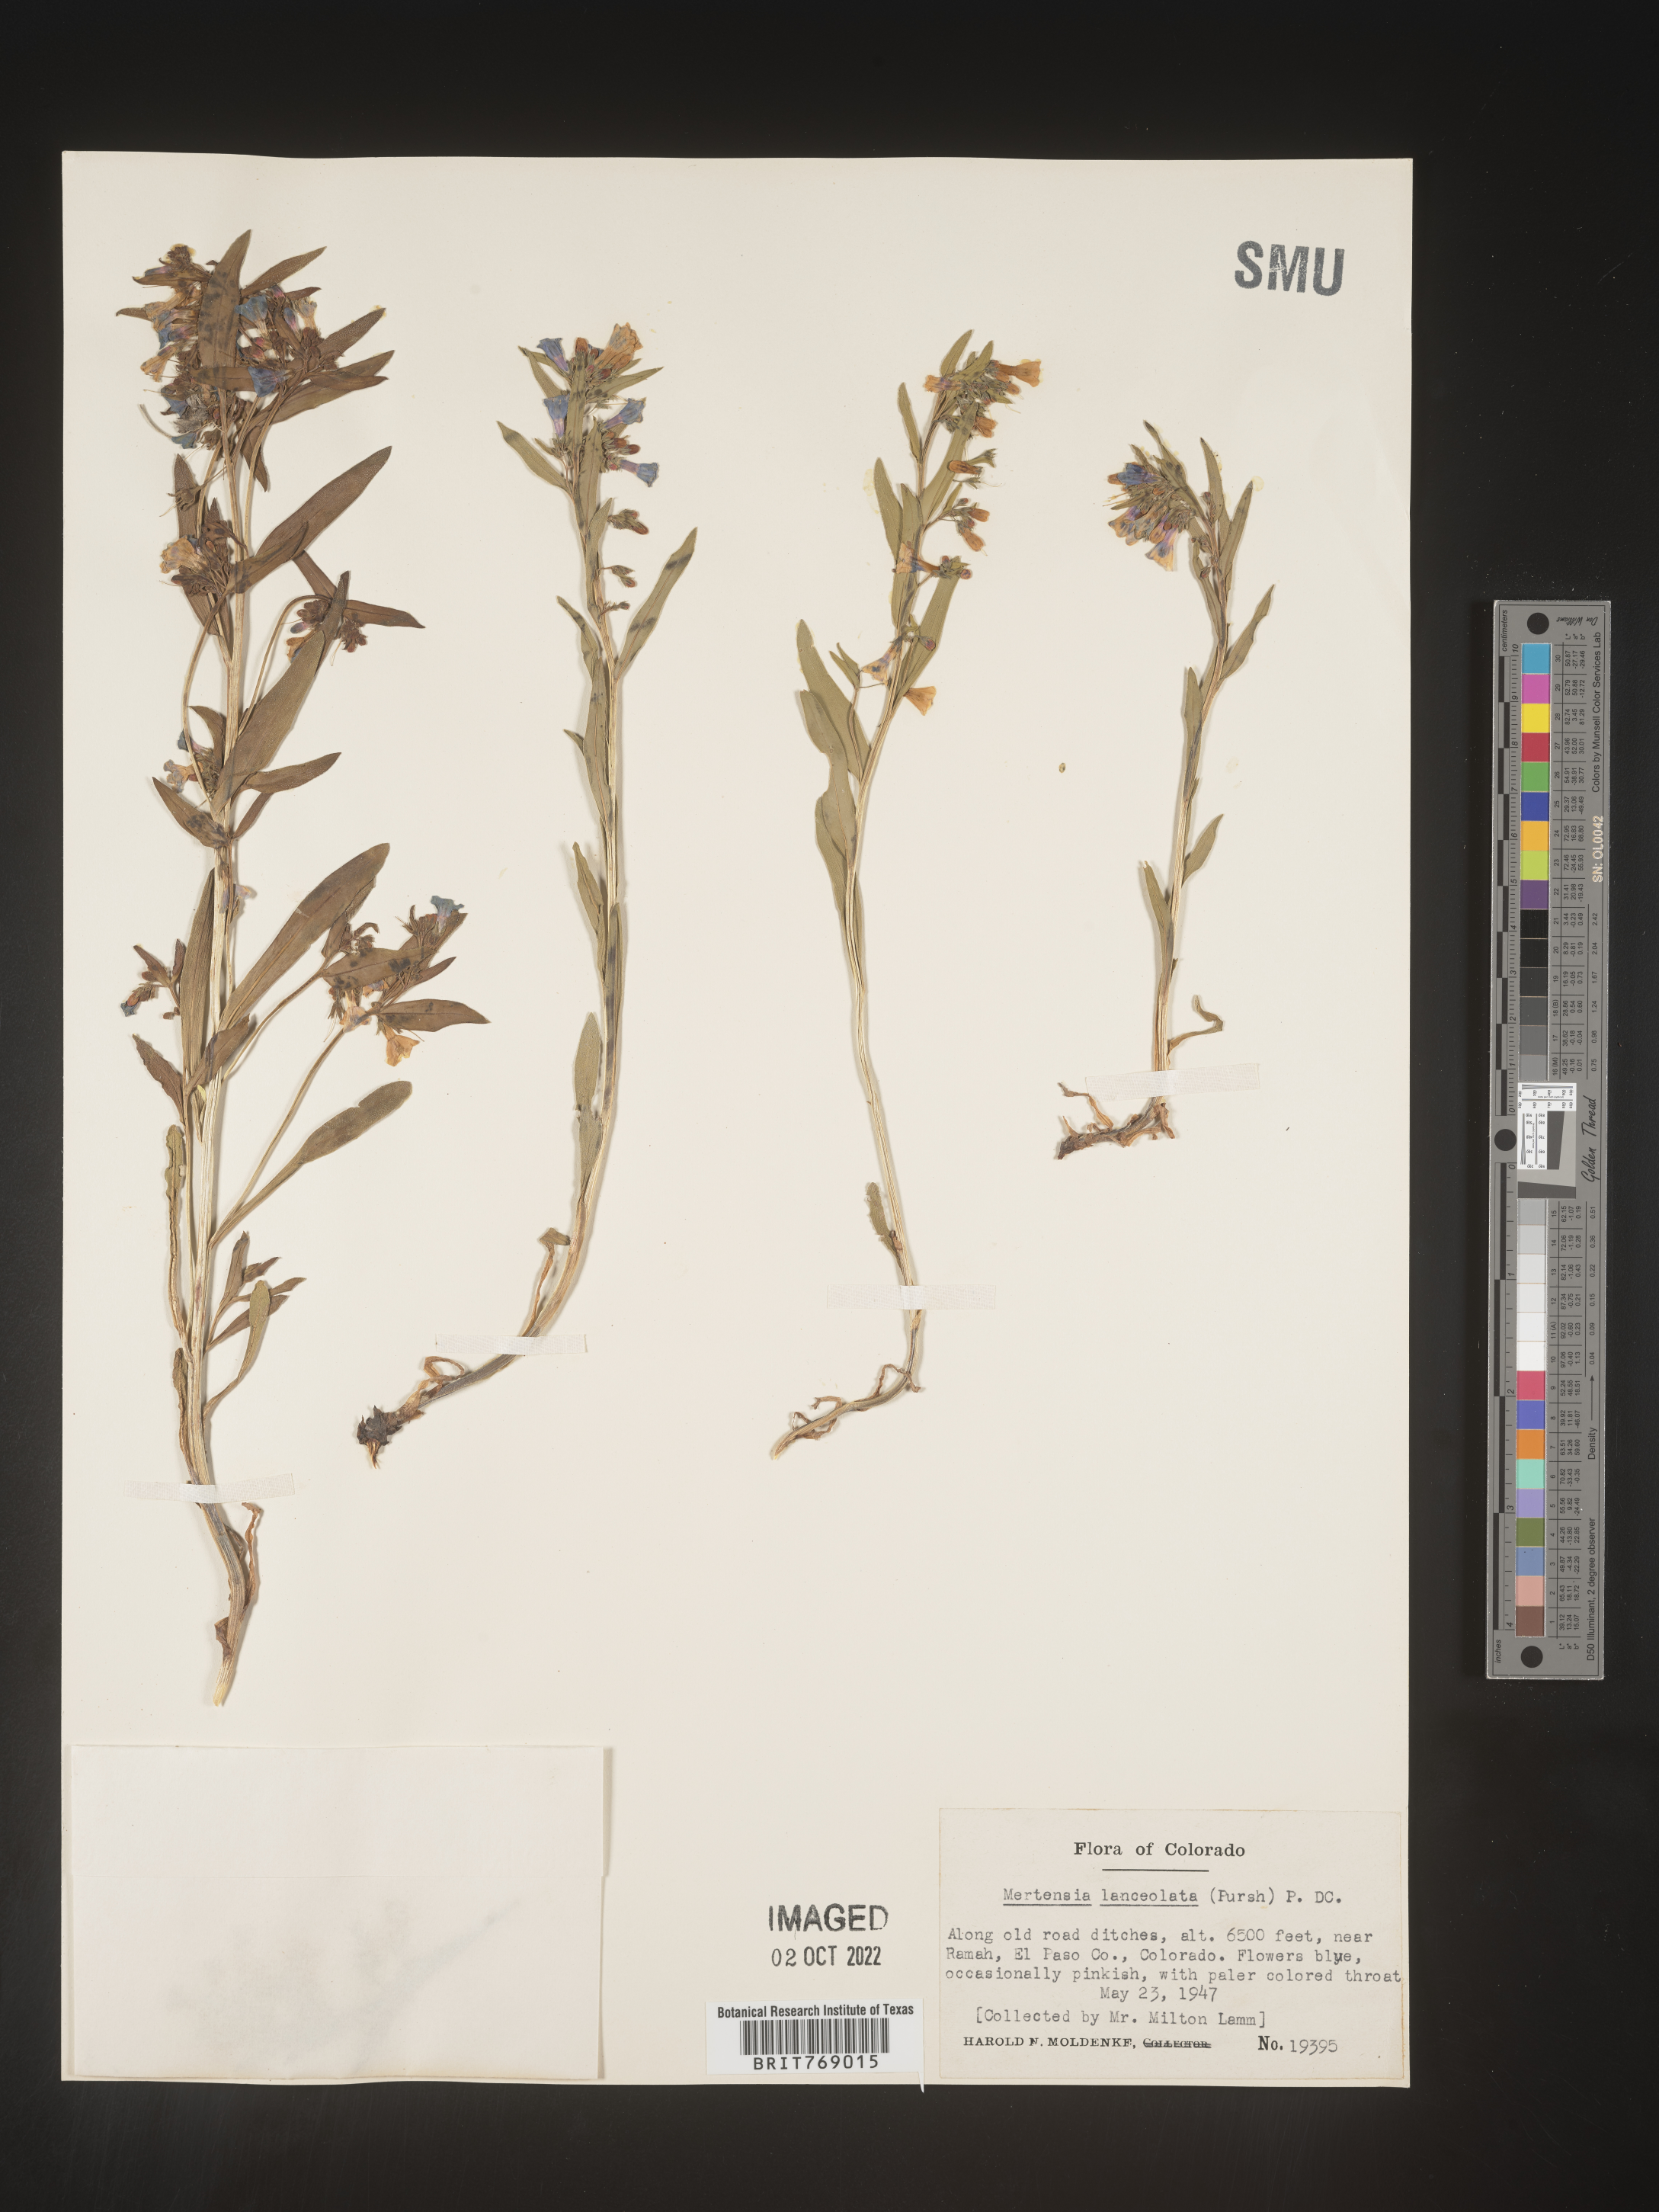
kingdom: Plantae
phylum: Tracheophyta
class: Magnoliopsida
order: Boraginales
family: Boraginaceae
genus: Mertensia
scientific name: Mertensia
